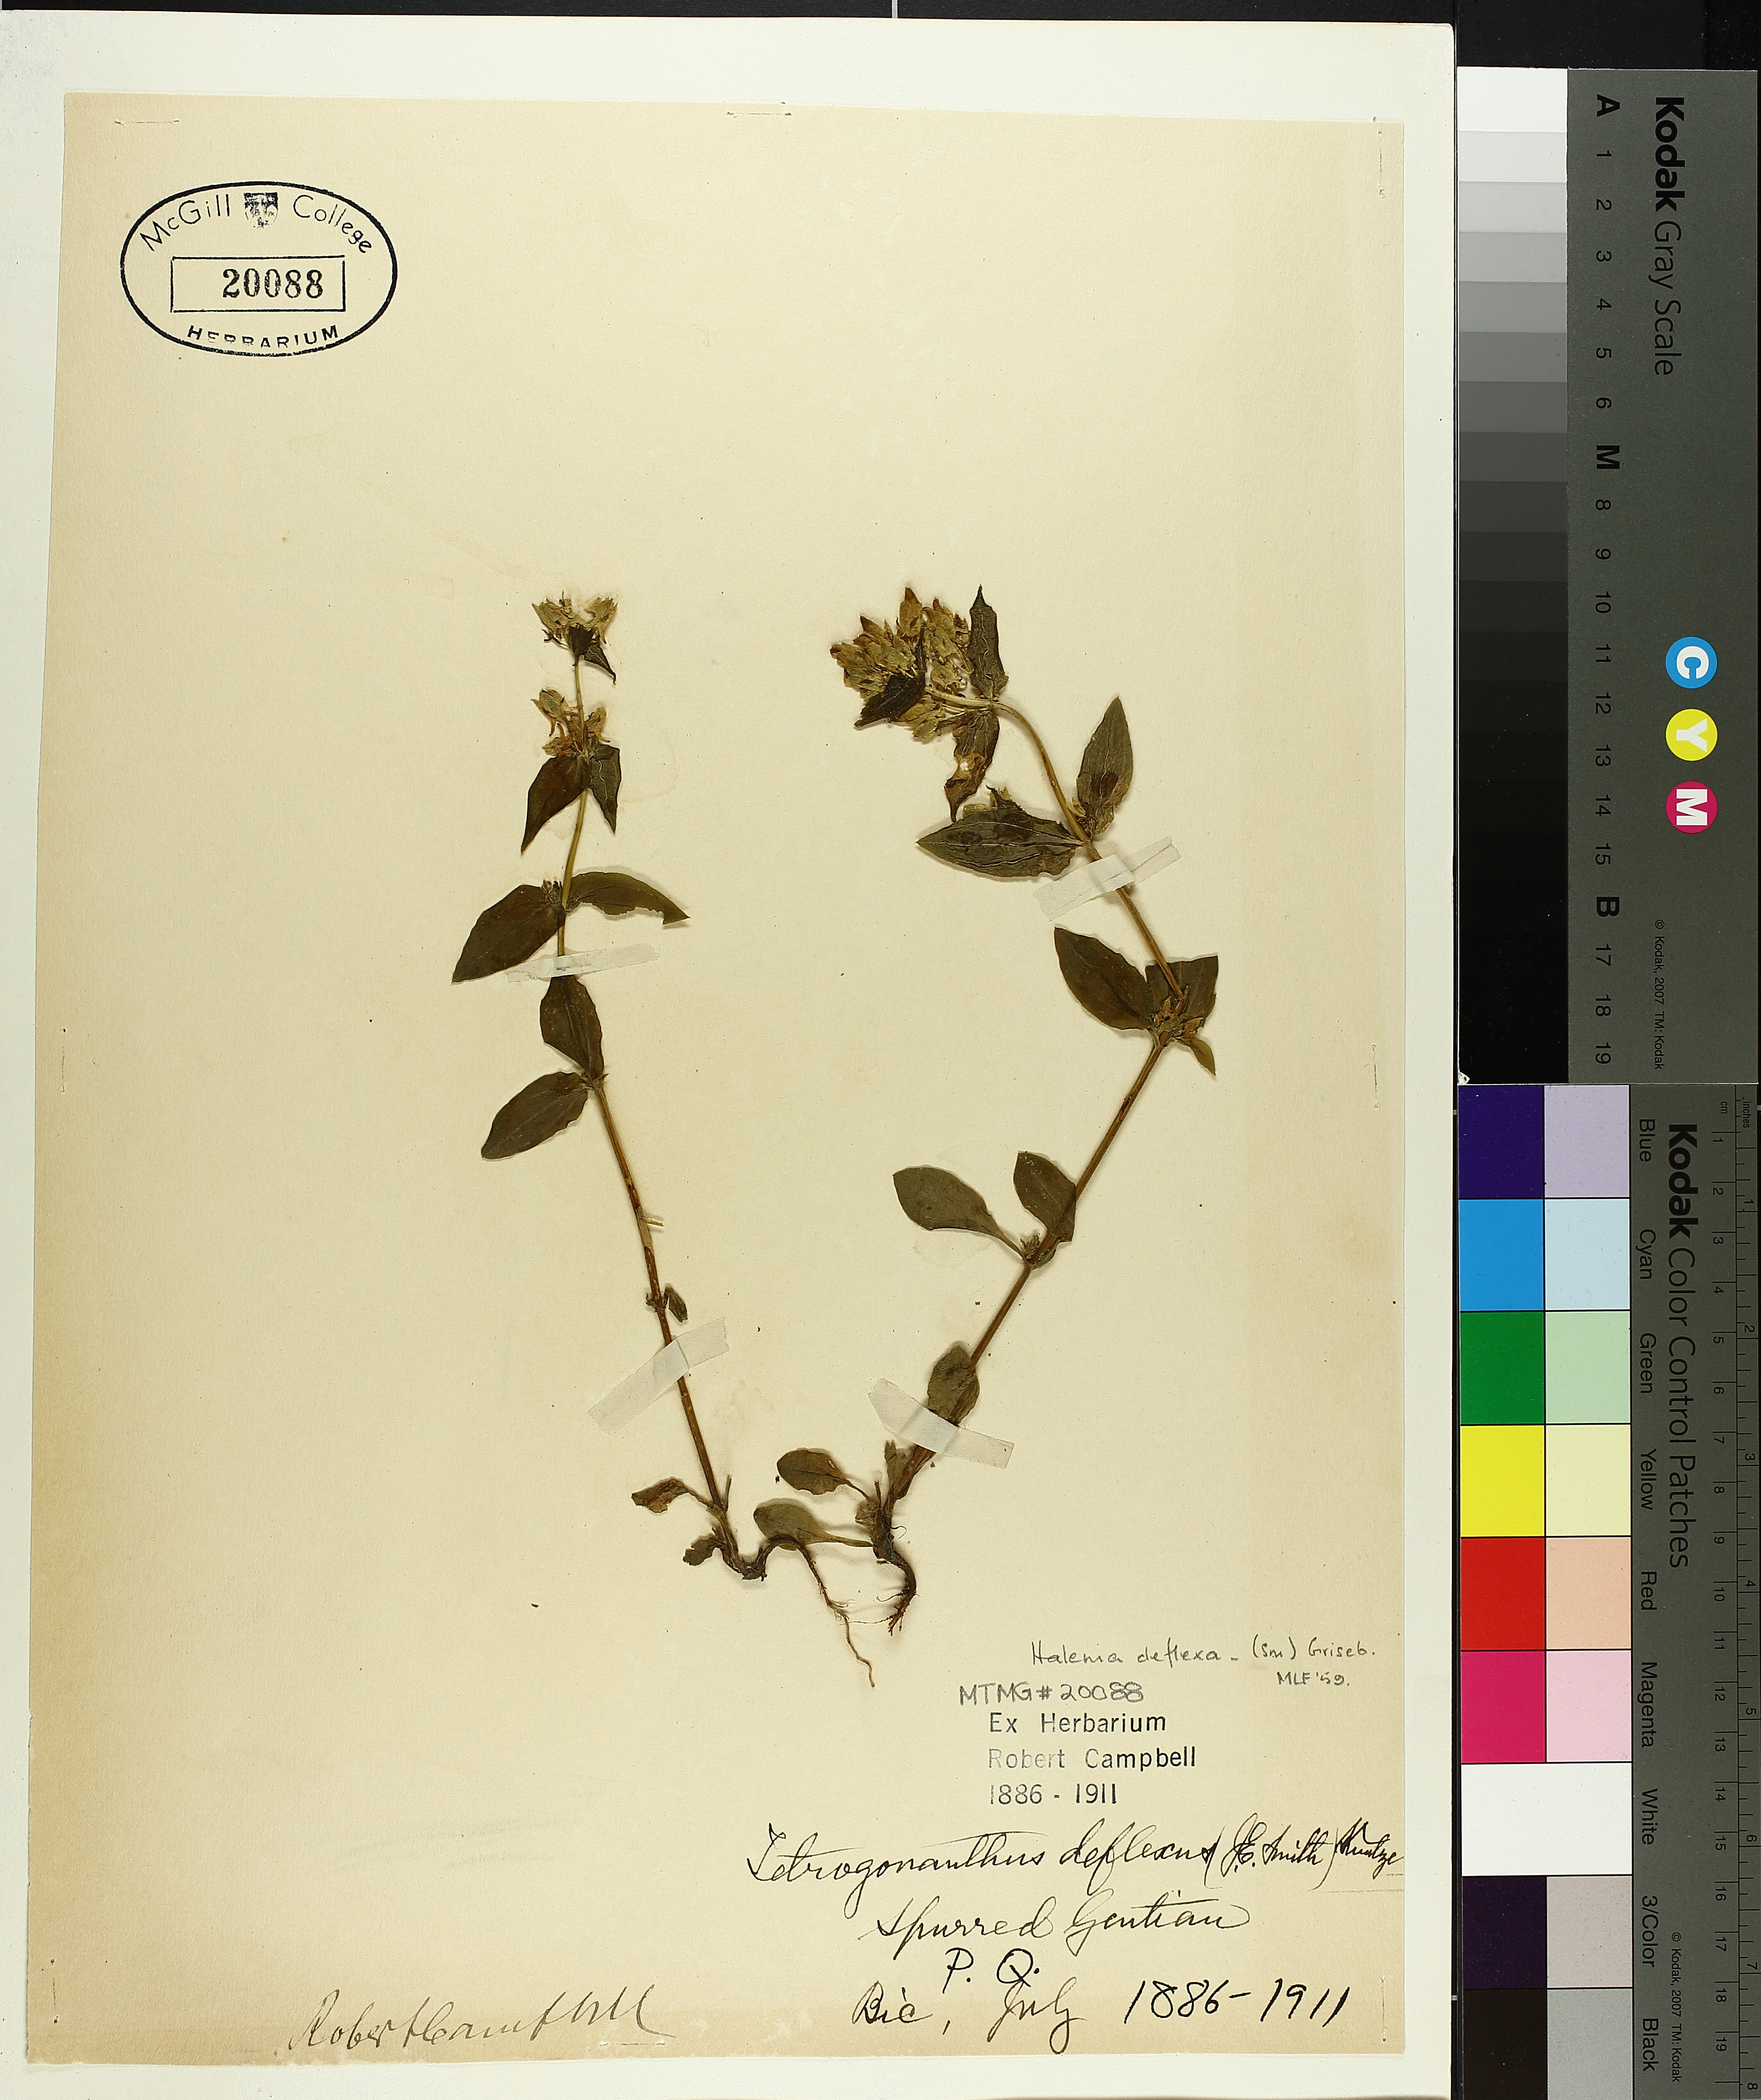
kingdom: Plantae
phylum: Tracheophyta
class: Magnoliopsida
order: Gentianales
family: Gentianaceae
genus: Halenia
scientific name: Halenia deflexa
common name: American spurred gentian
